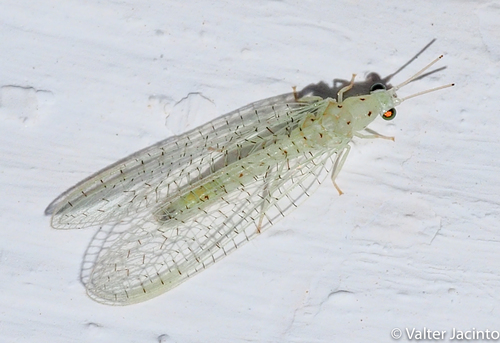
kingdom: Animalia
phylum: Arthropoda
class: Insecta
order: Neuroptera
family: Chrysopidae
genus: Pseudomallada
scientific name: Pseudomallada prasinus
